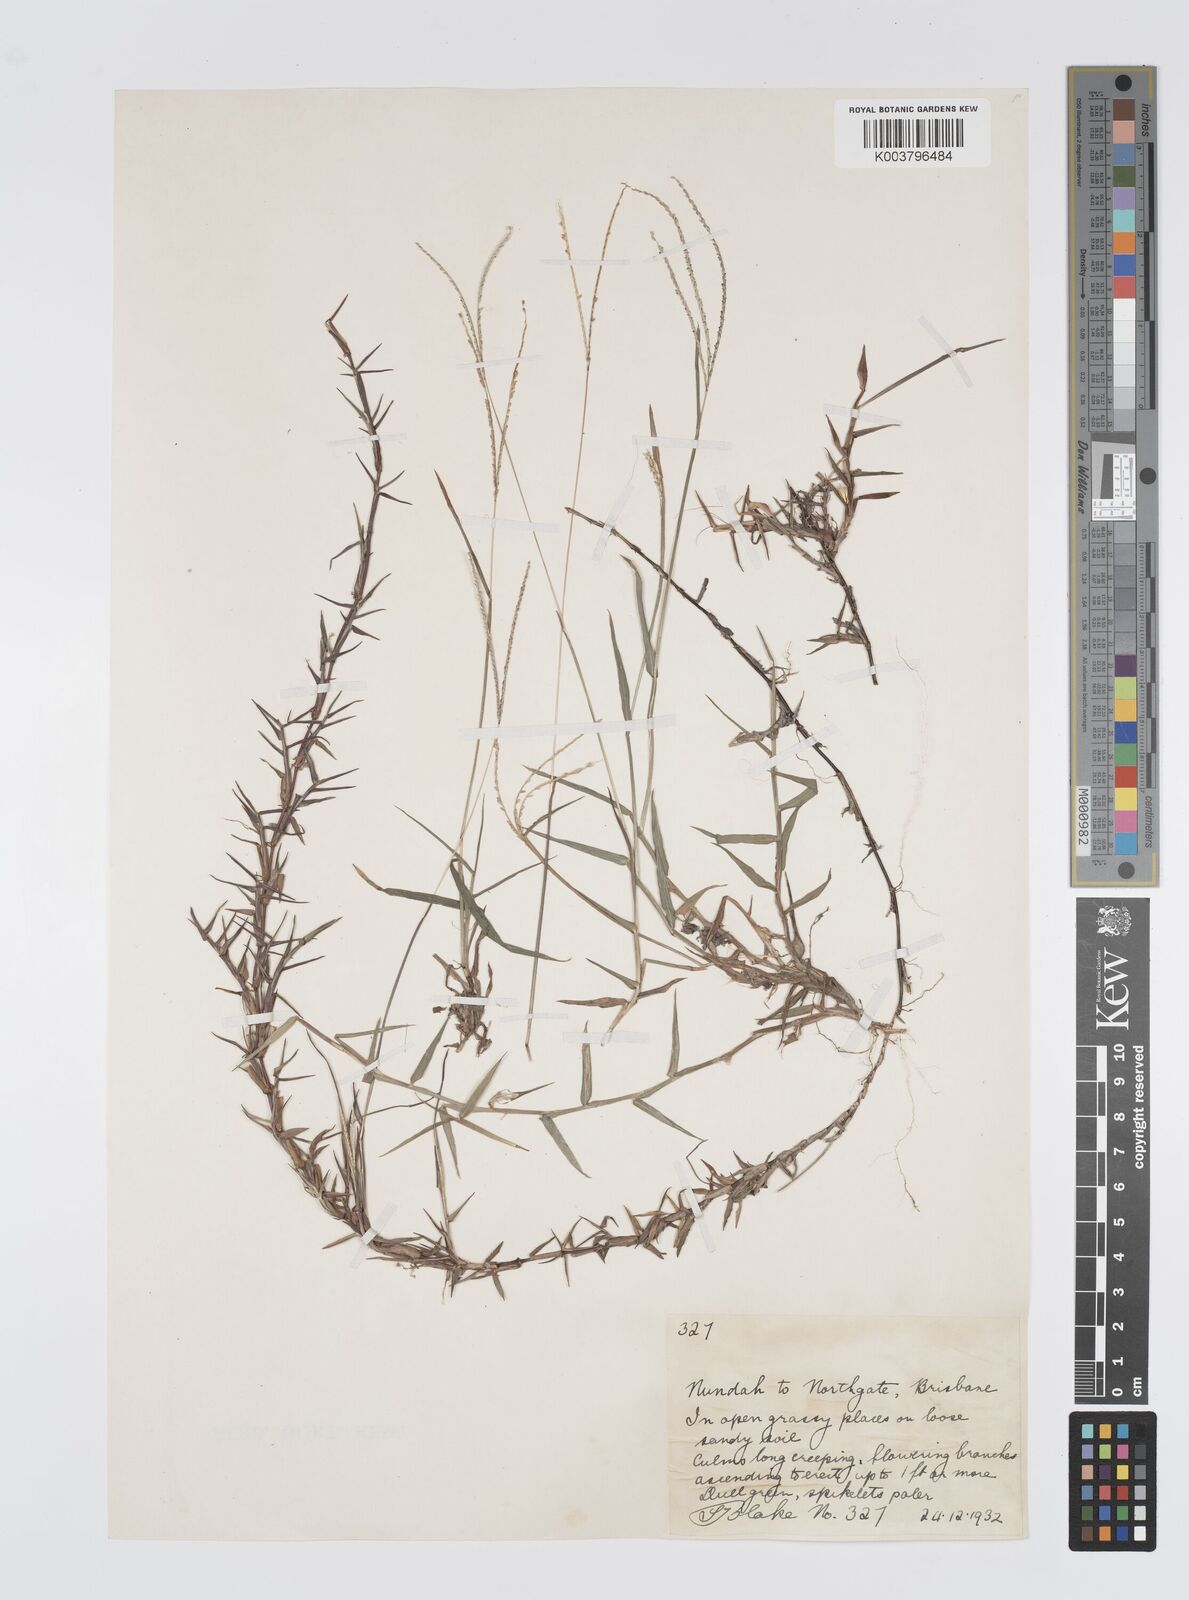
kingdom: Plantae
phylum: Tracheophyta
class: Liliopsida
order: Poales
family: Poaceae
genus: Digitaria
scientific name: Digitaria longiflora
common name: Wire crabgrass
